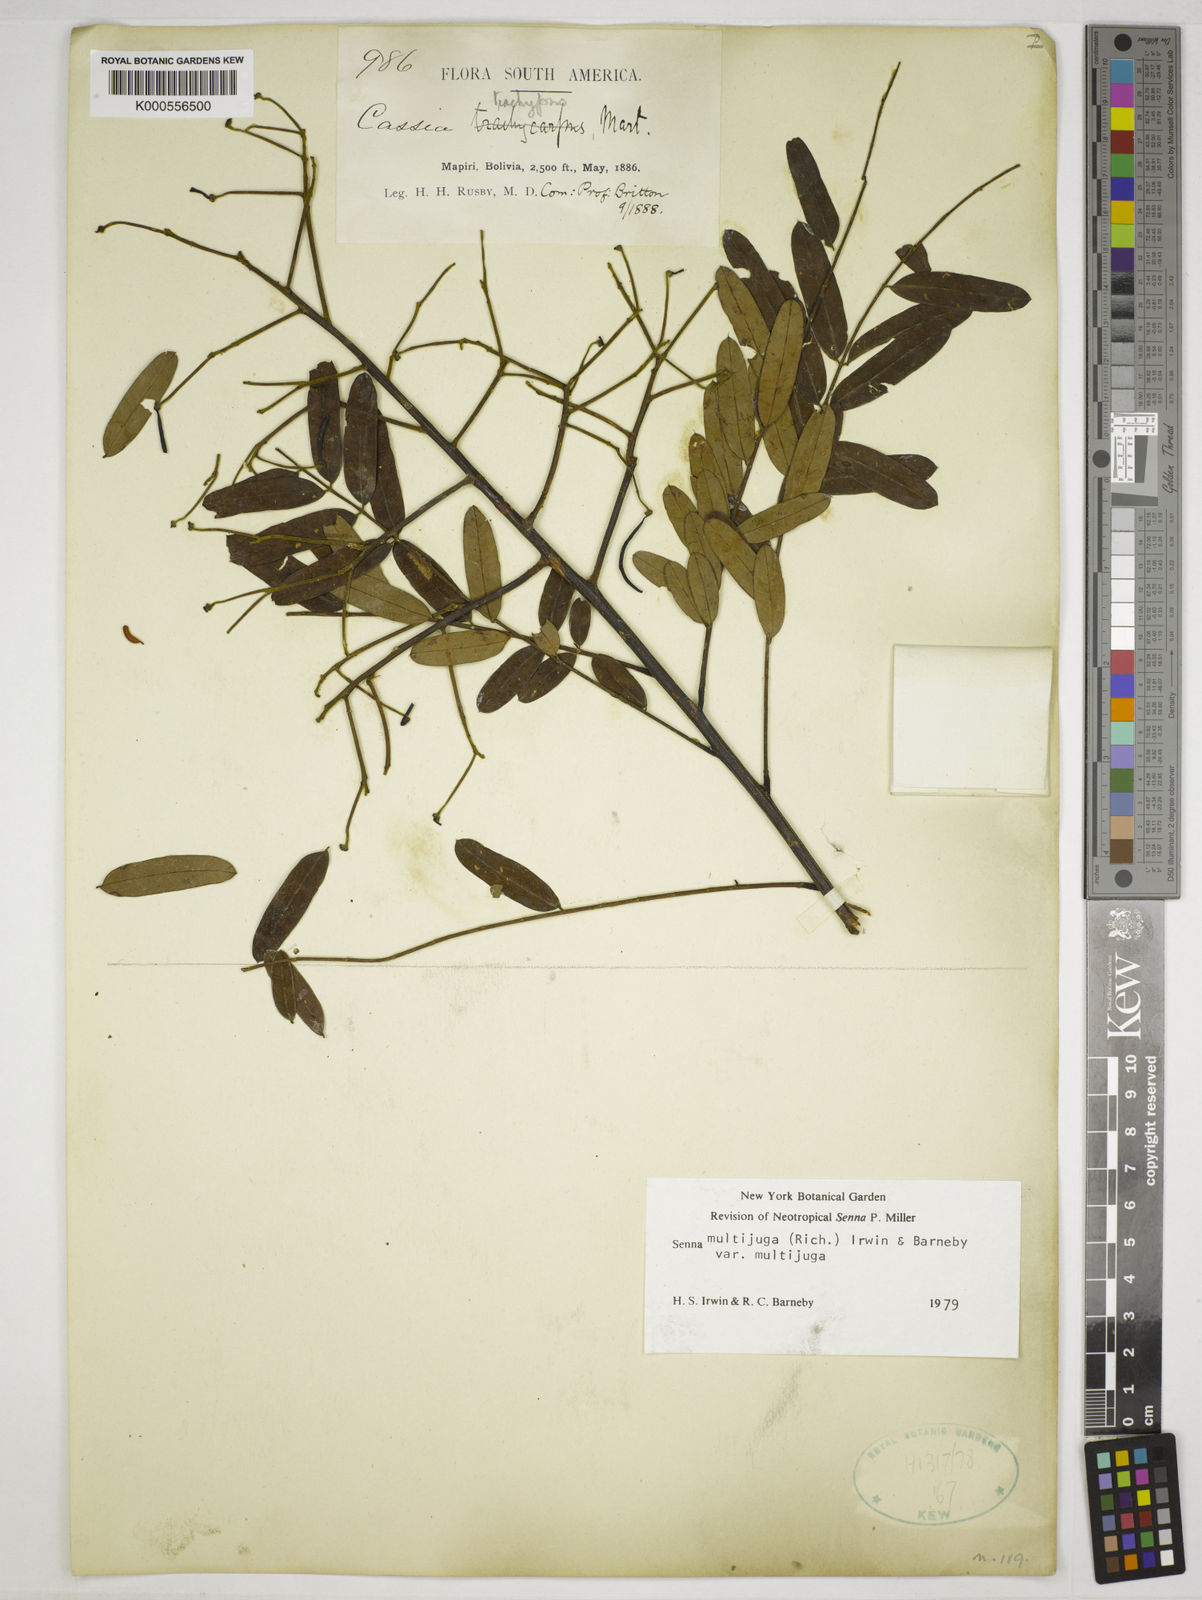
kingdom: Plantae
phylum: Tracheophyta
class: Magnoliopsida
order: Fabales
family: Fabaceae
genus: Senna
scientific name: Senna multijuga
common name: False sicklepod
